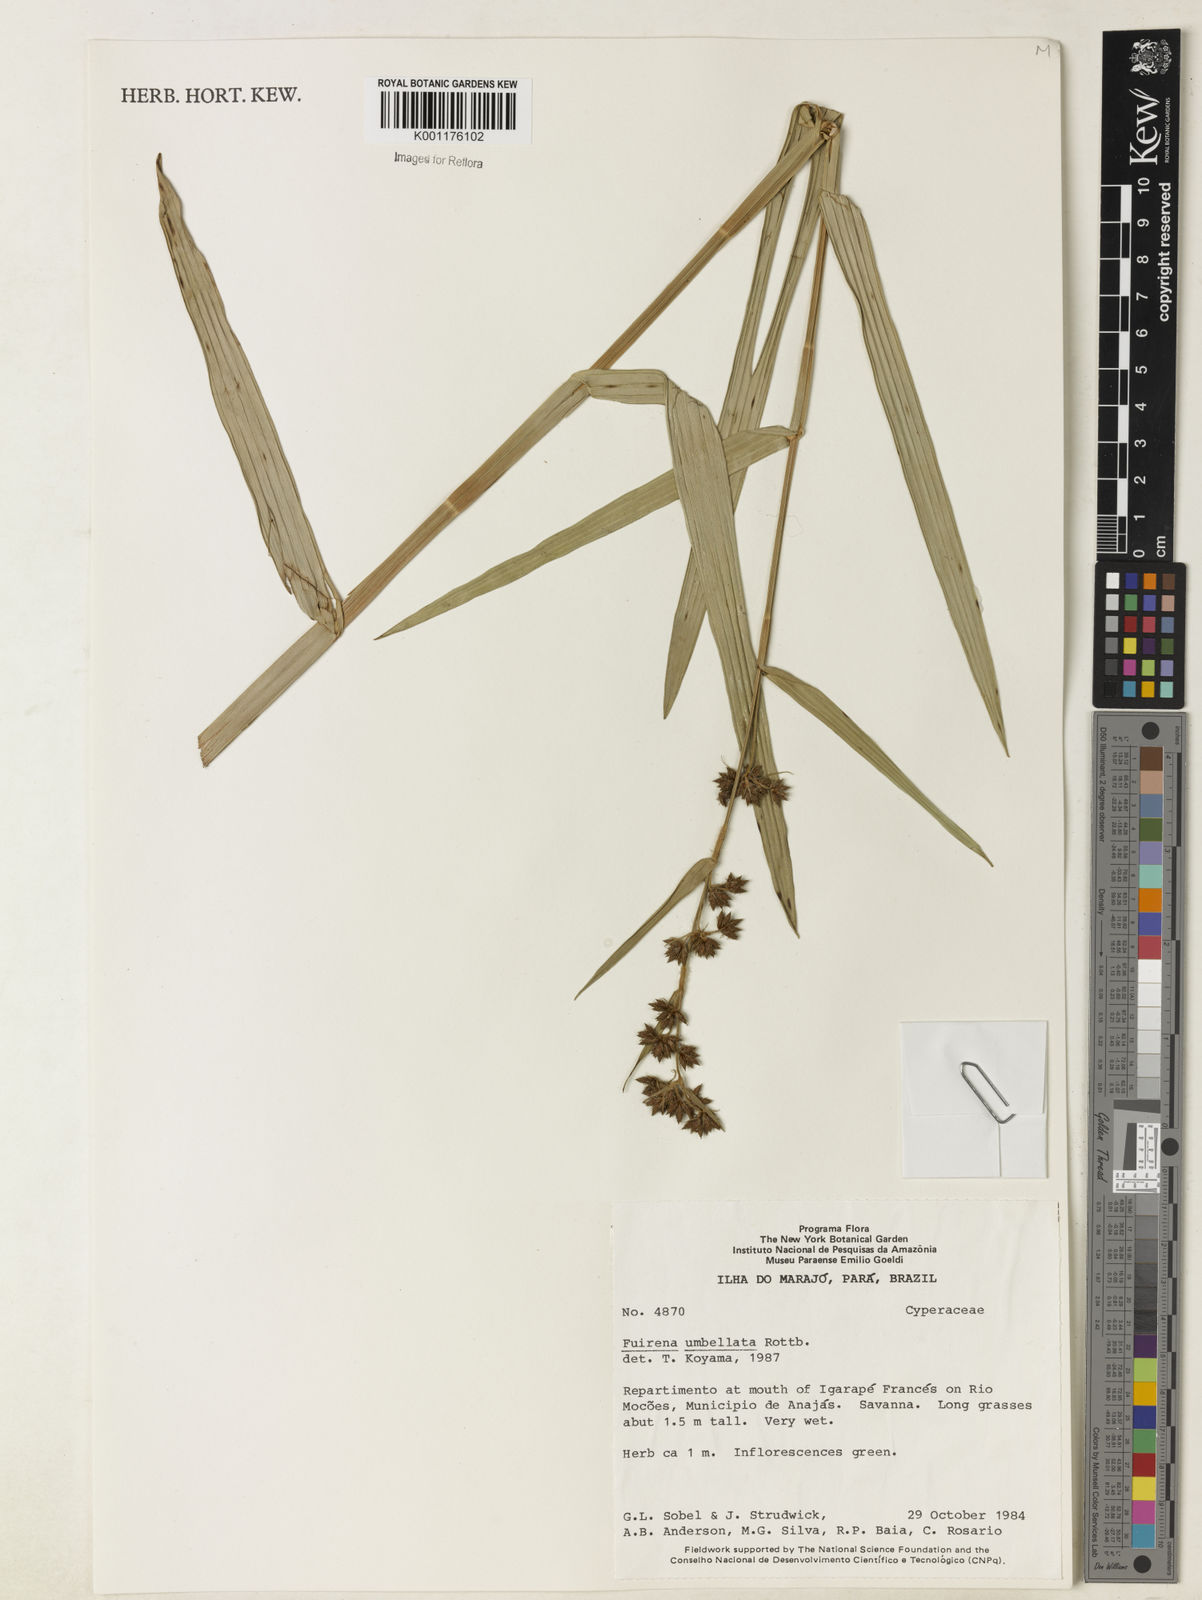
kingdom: Plantae
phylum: Tracheophyta
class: Liliopsida
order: Poales
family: Cyperaceae
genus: Fuirena
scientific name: Fuirena umbellata
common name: Yefen
